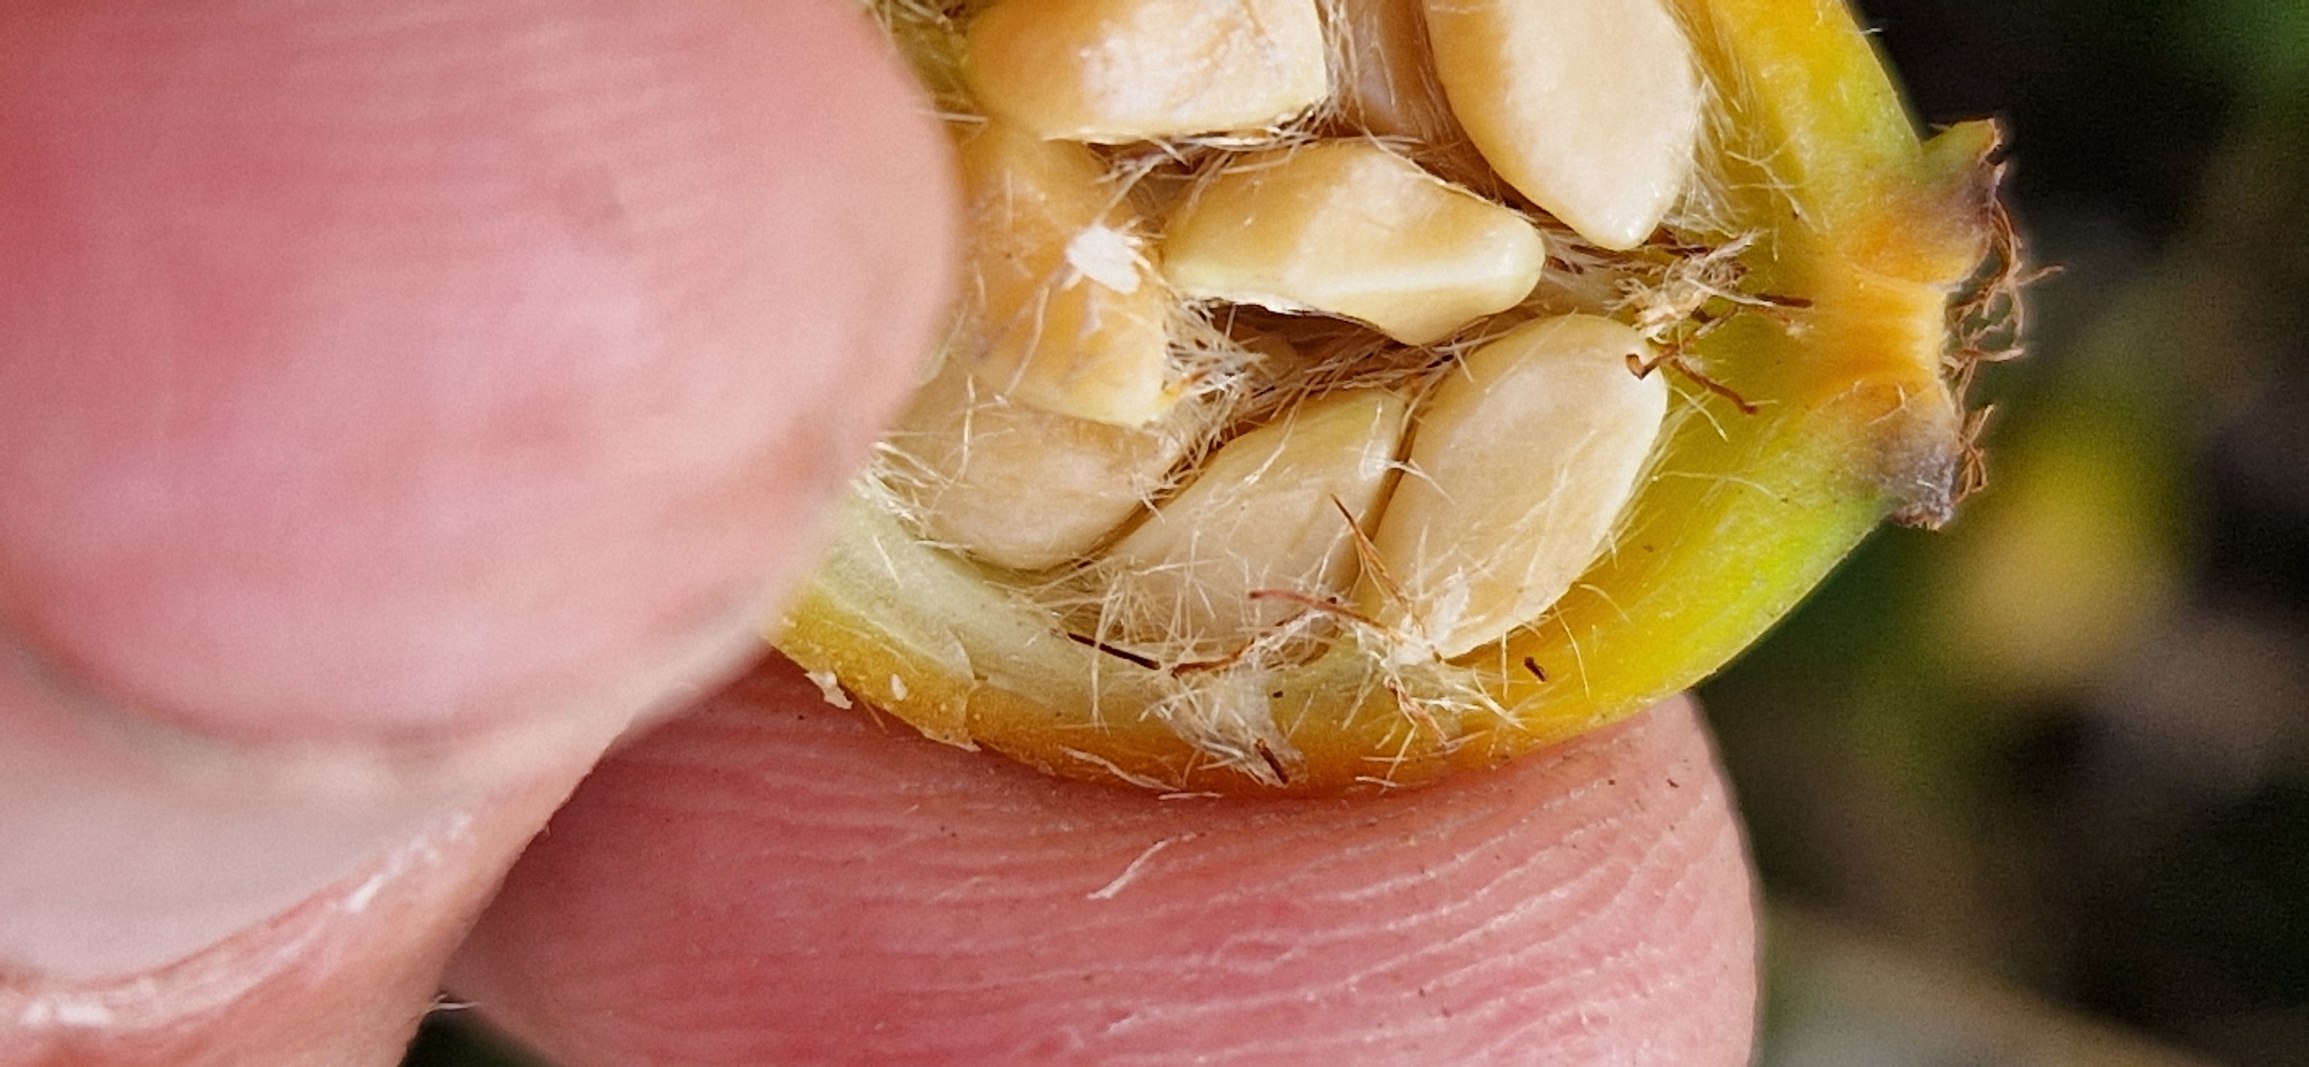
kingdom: Plantae
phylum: Tracheophyta
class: Magnoliopsida
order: Rosales
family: Rosaceae
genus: Rosa
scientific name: Rosa rubiginosa
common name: Æble-rose
